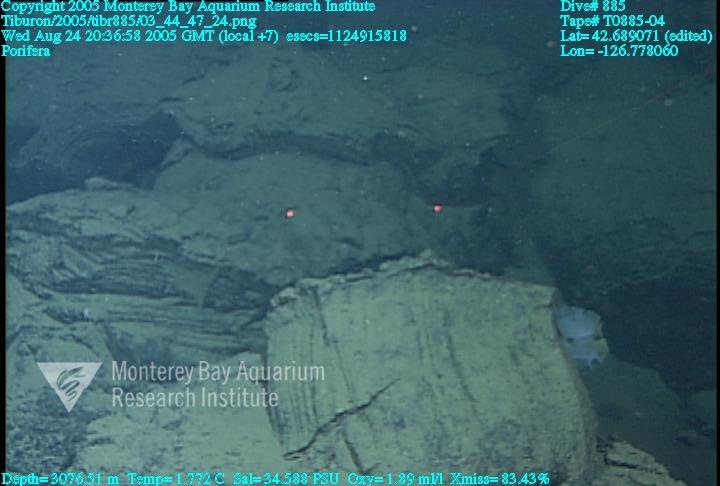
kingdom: Animalia
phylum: Porifera
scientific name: Porifera
